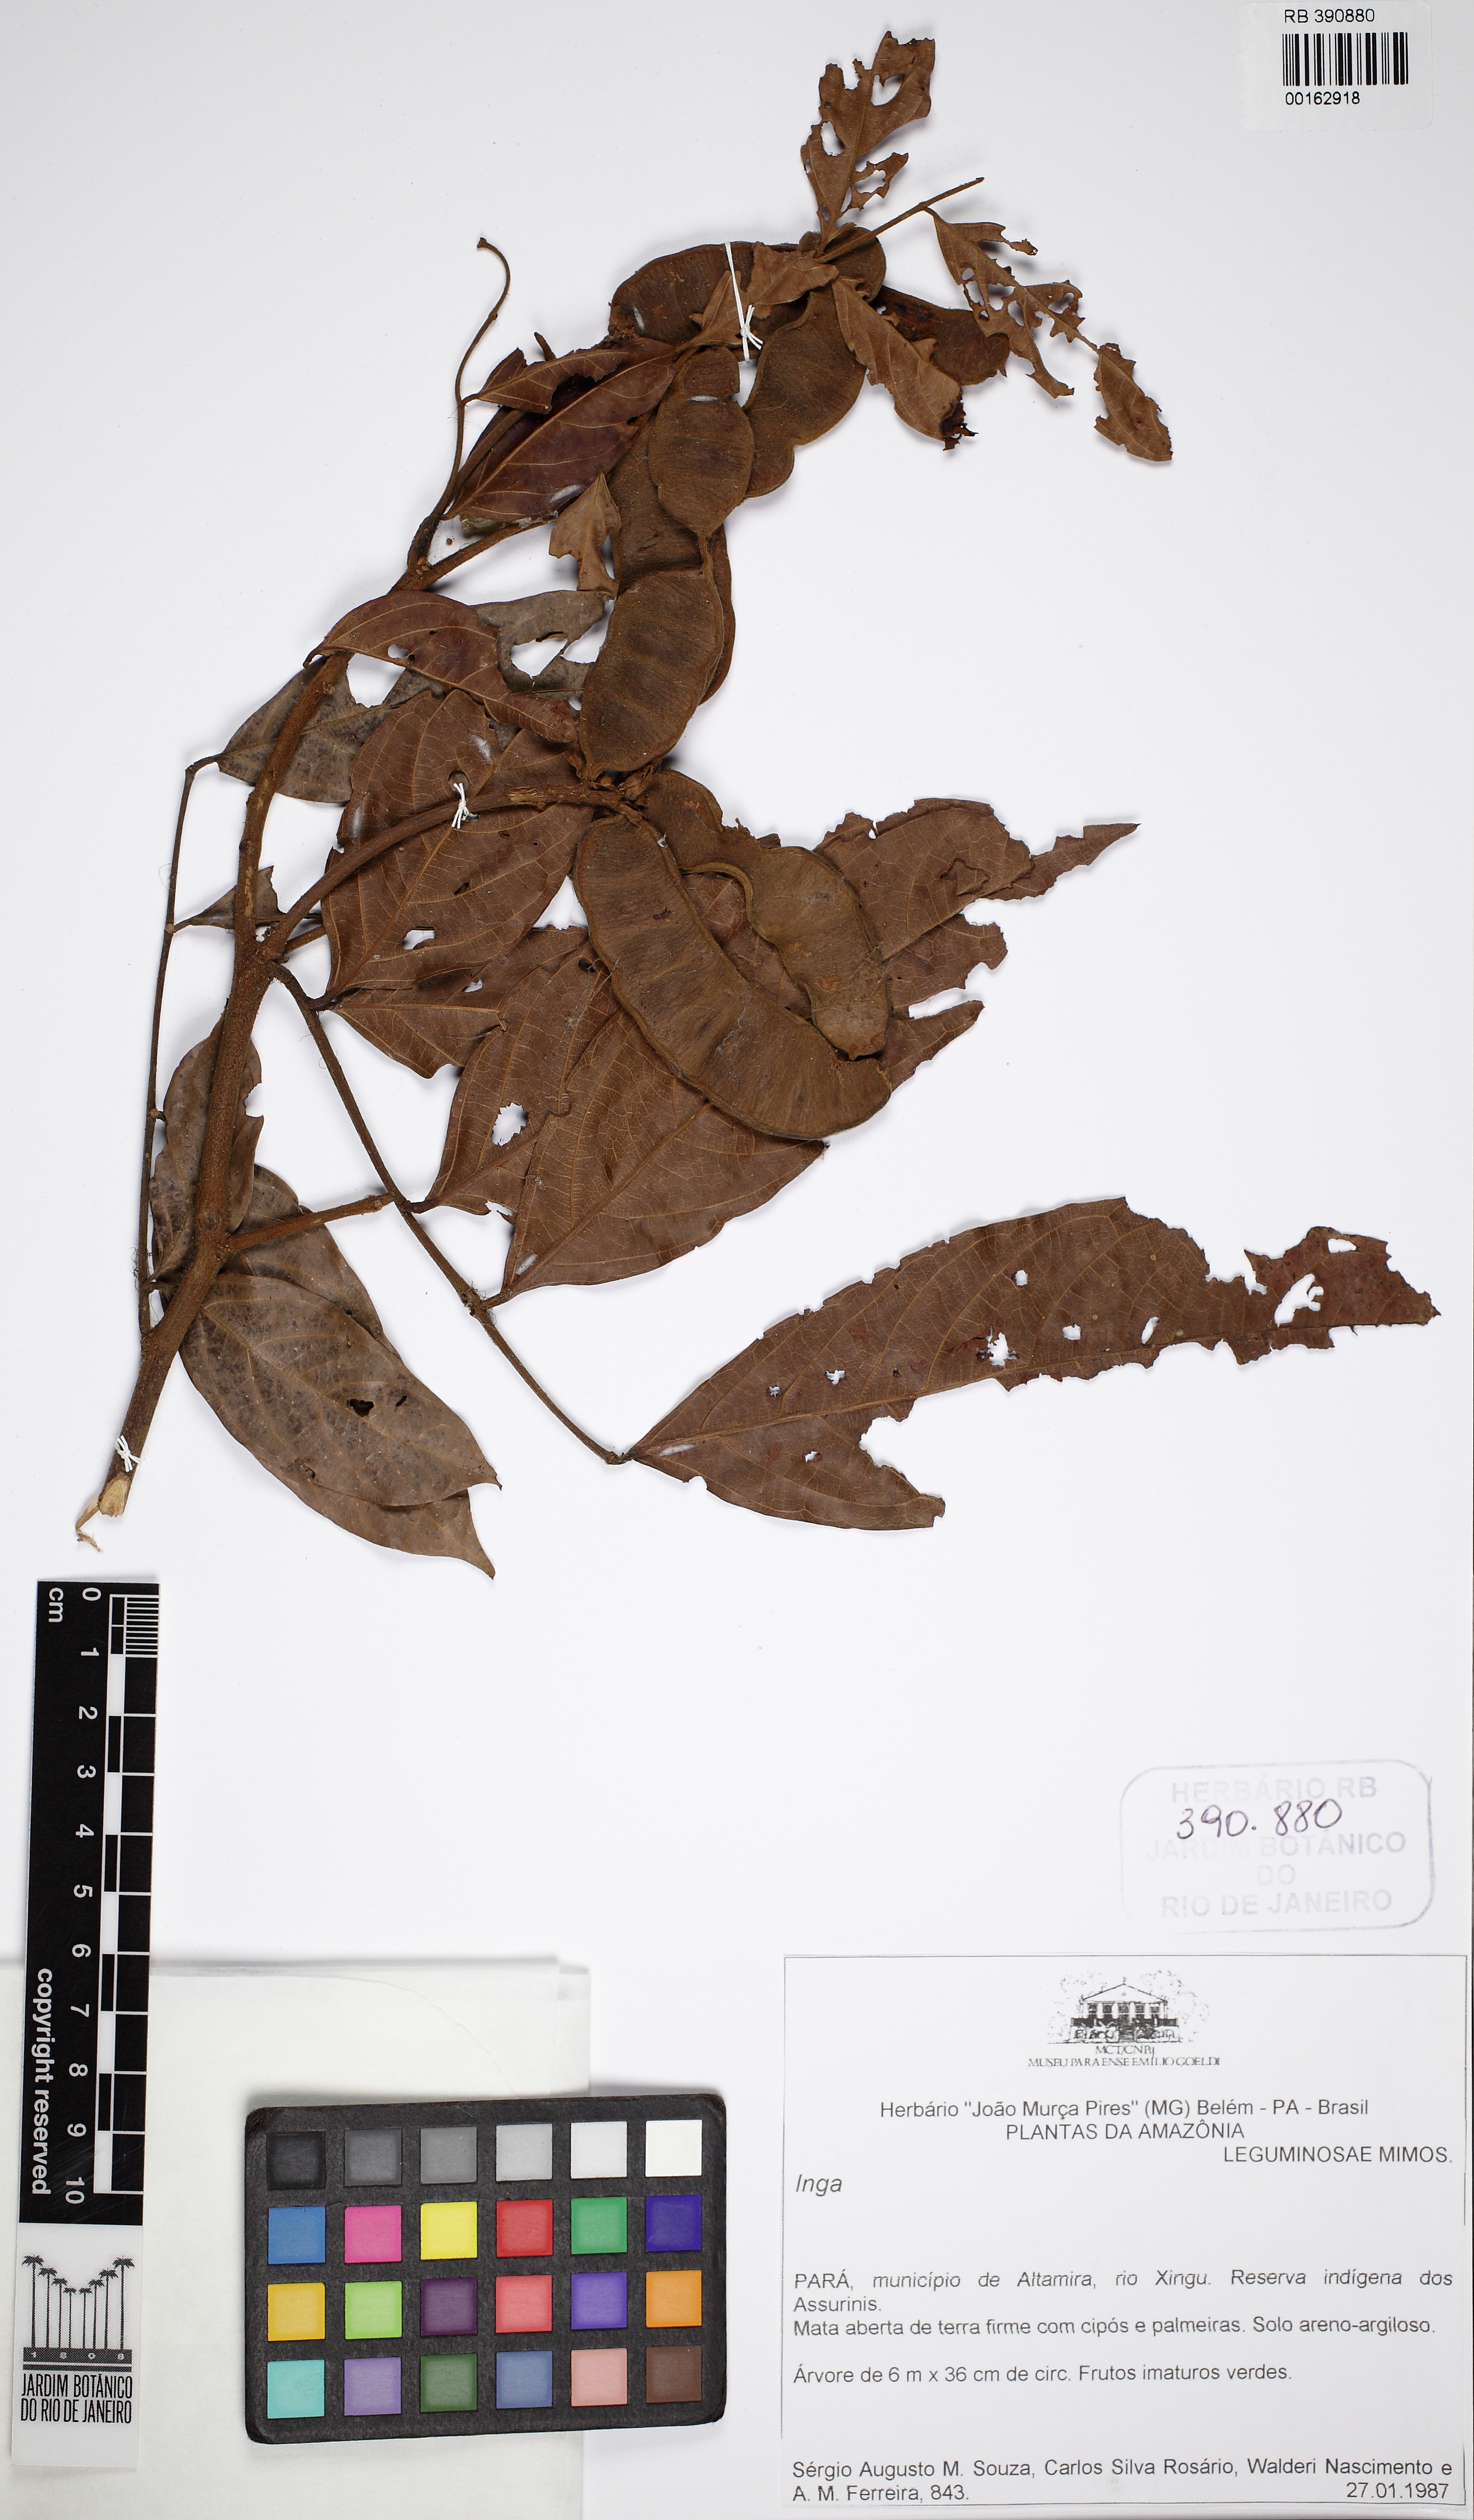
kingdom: Plantae
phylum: Tracheophyta
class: Magnoliopsida
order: Fabales
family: Fabaceae
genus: Inga
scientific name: Inga nobilis
